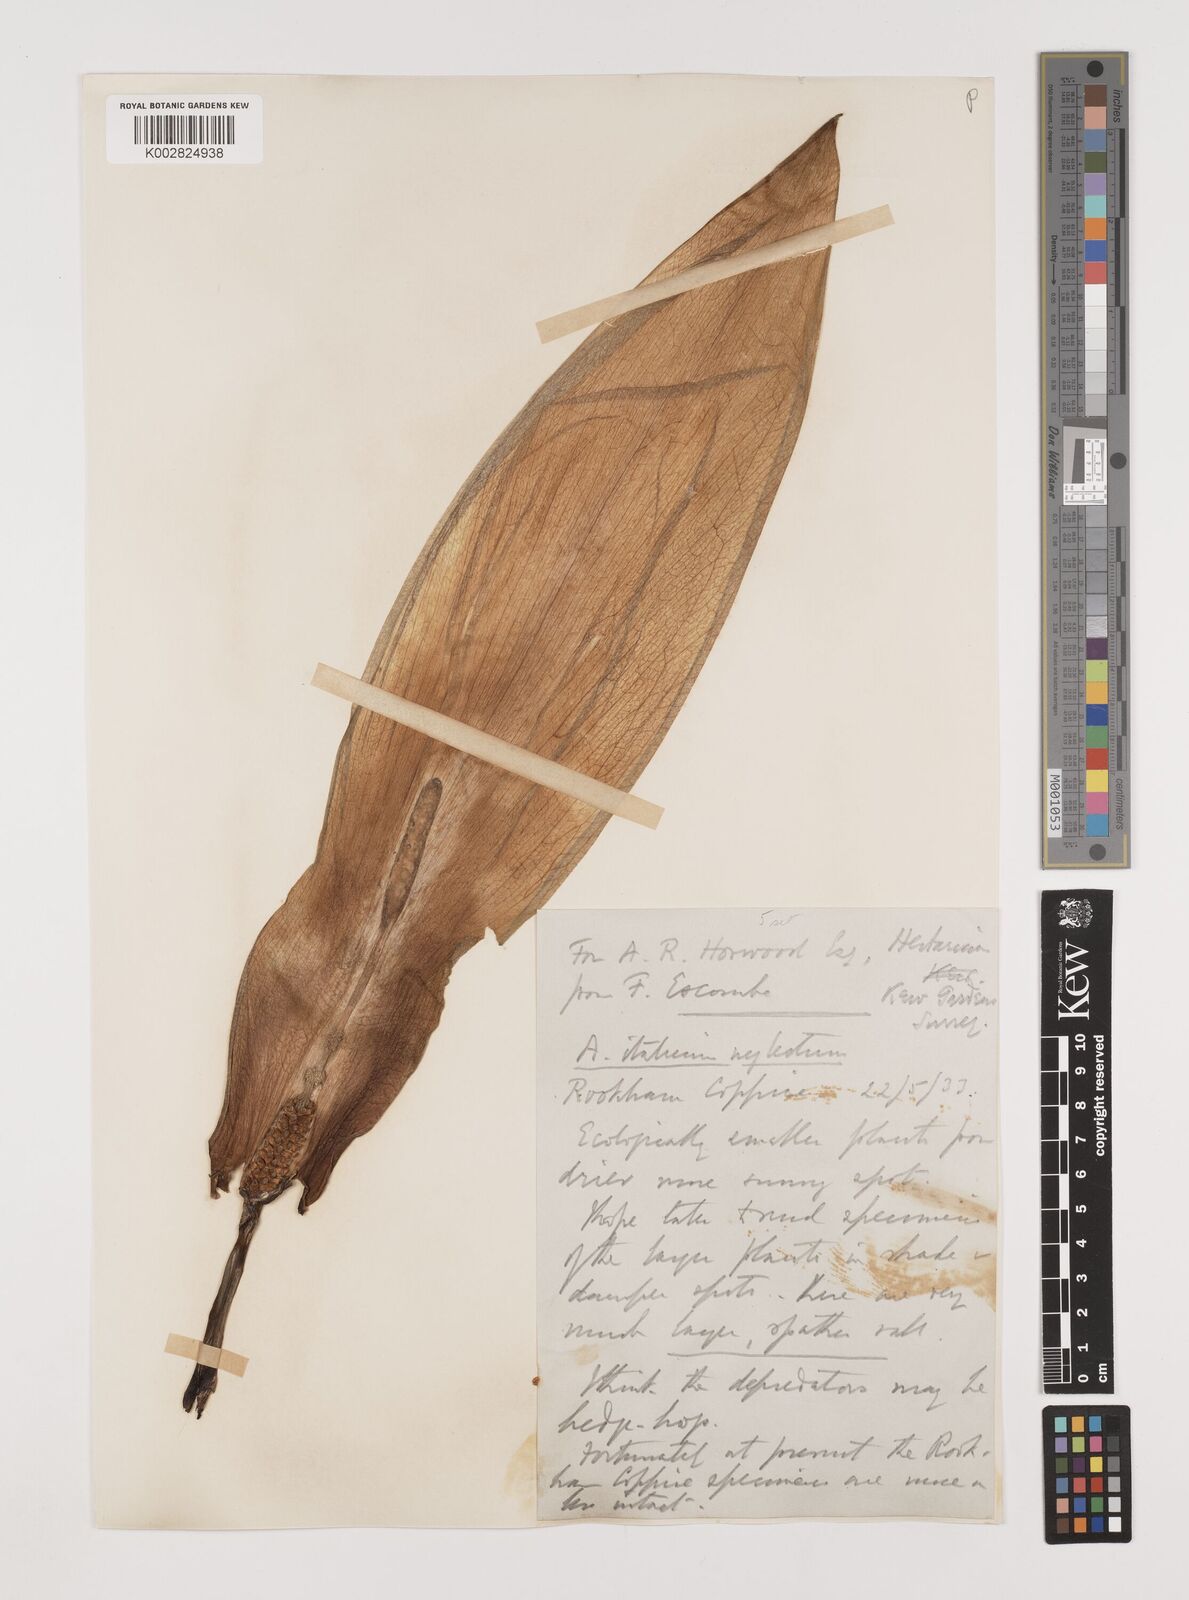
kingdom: Plantae
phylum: Tracheophyta
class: Liliopsida
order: Alismatales
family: Araceae
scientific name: Araceae
